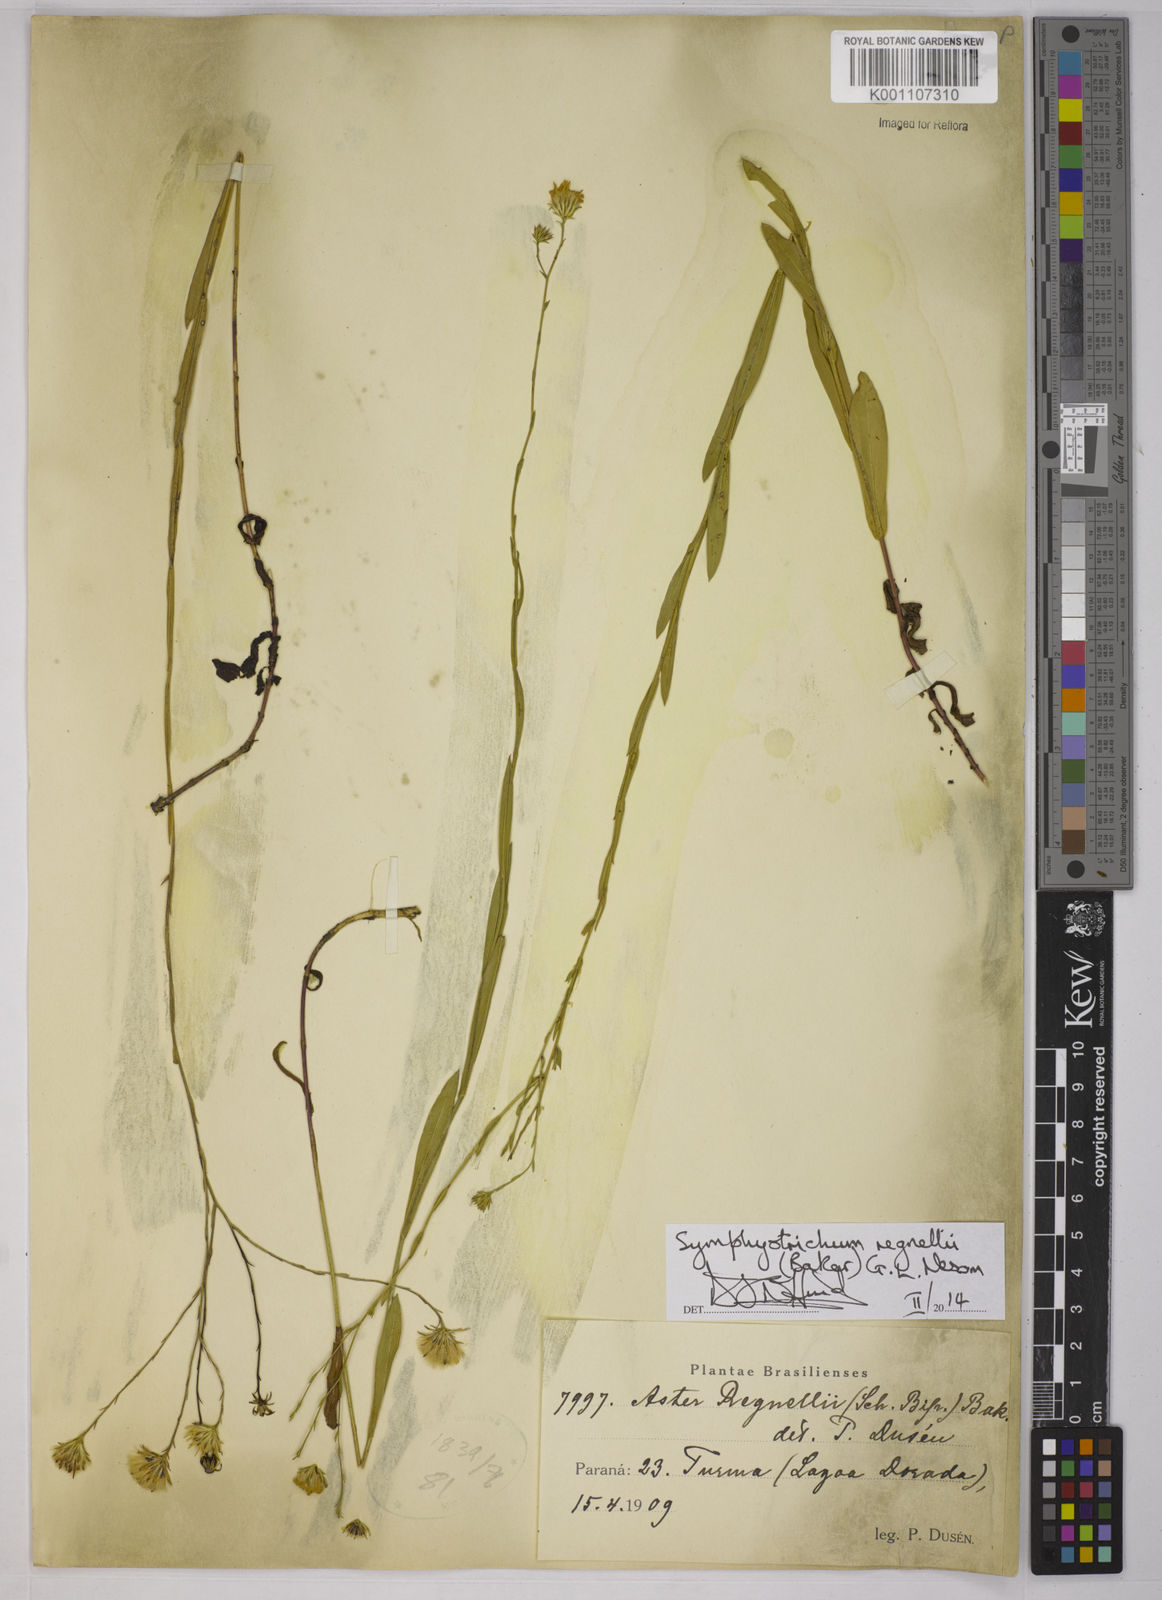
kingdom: Plantae
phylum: Tracheophyta
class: Magnoliopsida
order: Asterales
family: Asteraceae
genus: Symphyotrichum
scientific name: Symphyotrichum regnellii
